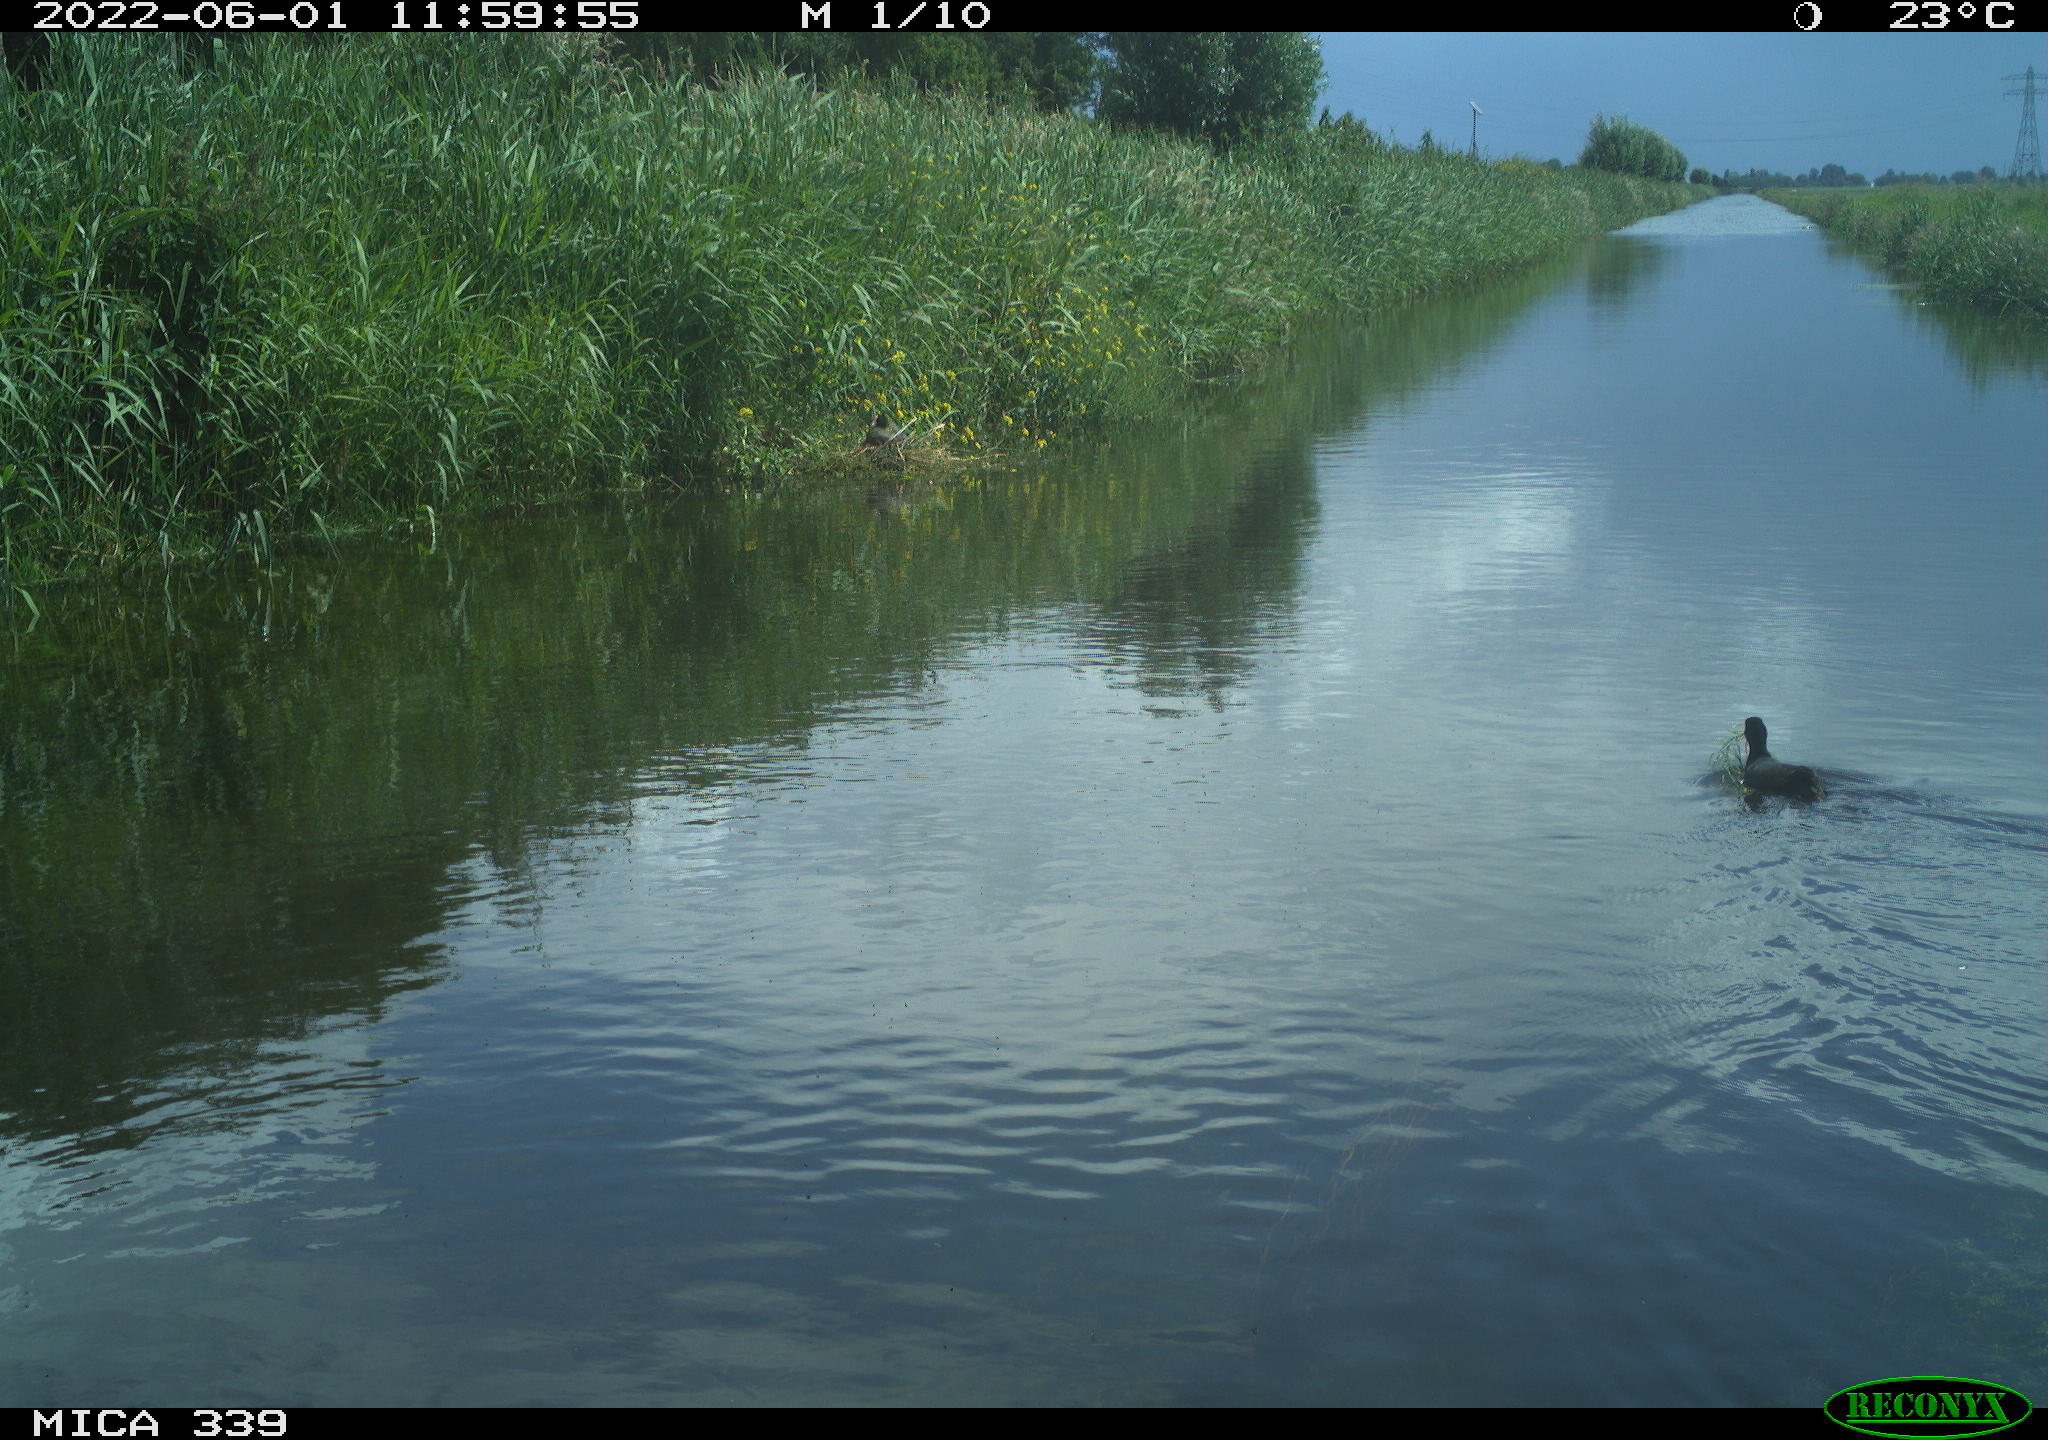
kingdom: Animalia
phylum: Chordata
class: Aves
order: Gruiformes
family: Rallidae
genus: Fulica
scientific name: Fulica atra
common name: Eurasian coot
